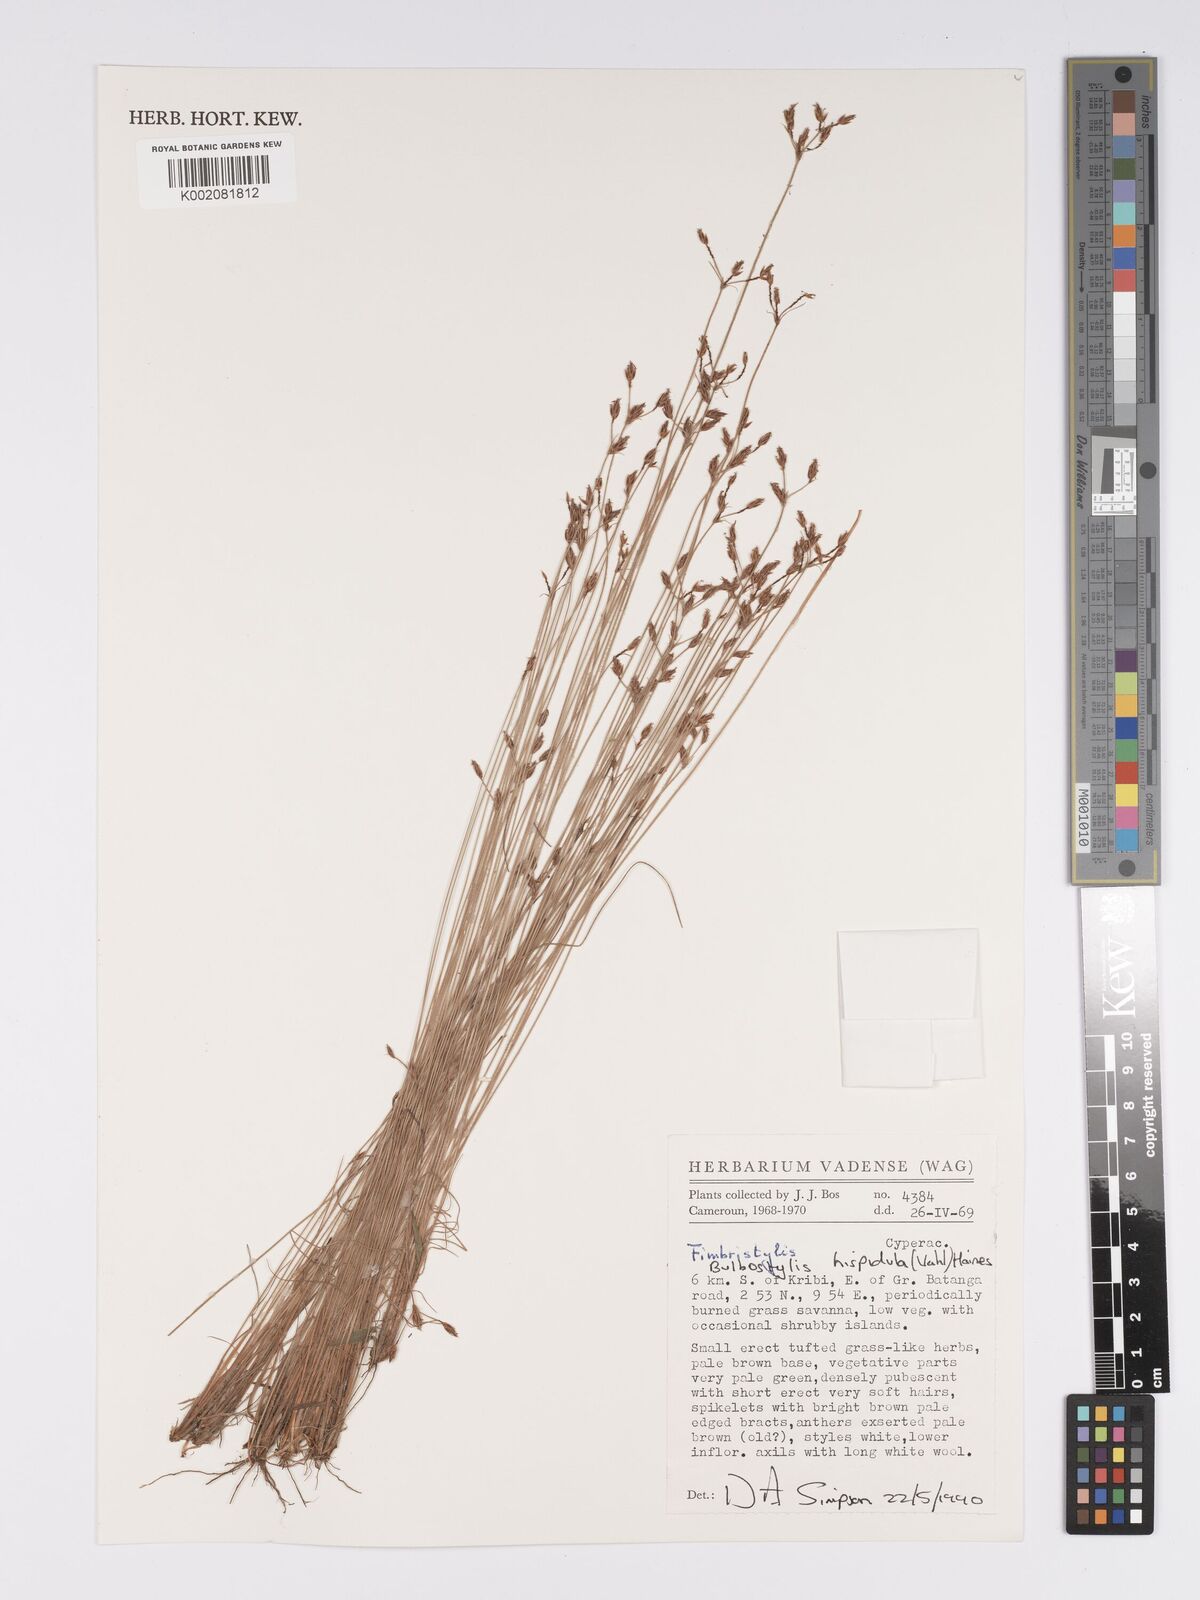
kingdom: Plantae
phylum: Tracheophyta
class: Liliopsida
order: Poales
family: Cyperaceae
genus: Bulbostylis
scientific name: Bulbostylis hispidula
